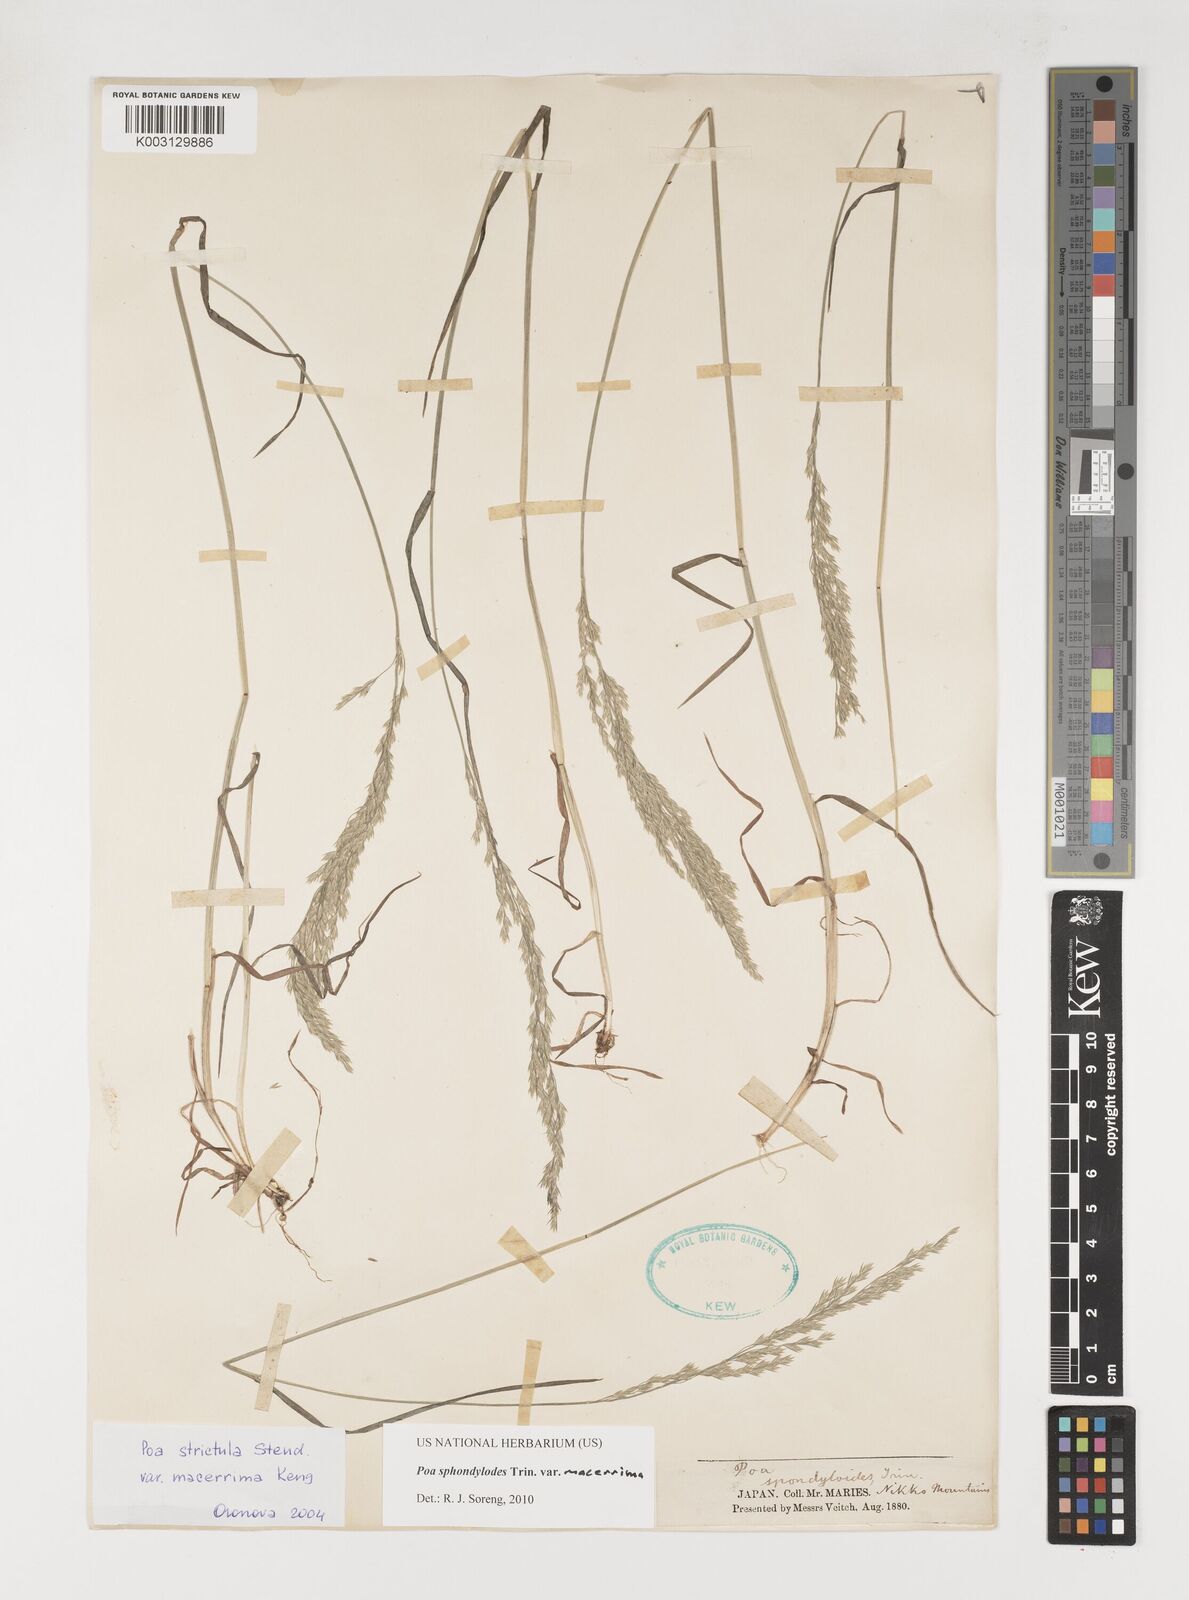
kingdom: Plantae
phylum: Tracheophyta
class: Liliopsida
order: Poales
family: Poaceae
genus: Poa
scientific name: Poa sphondylodes
